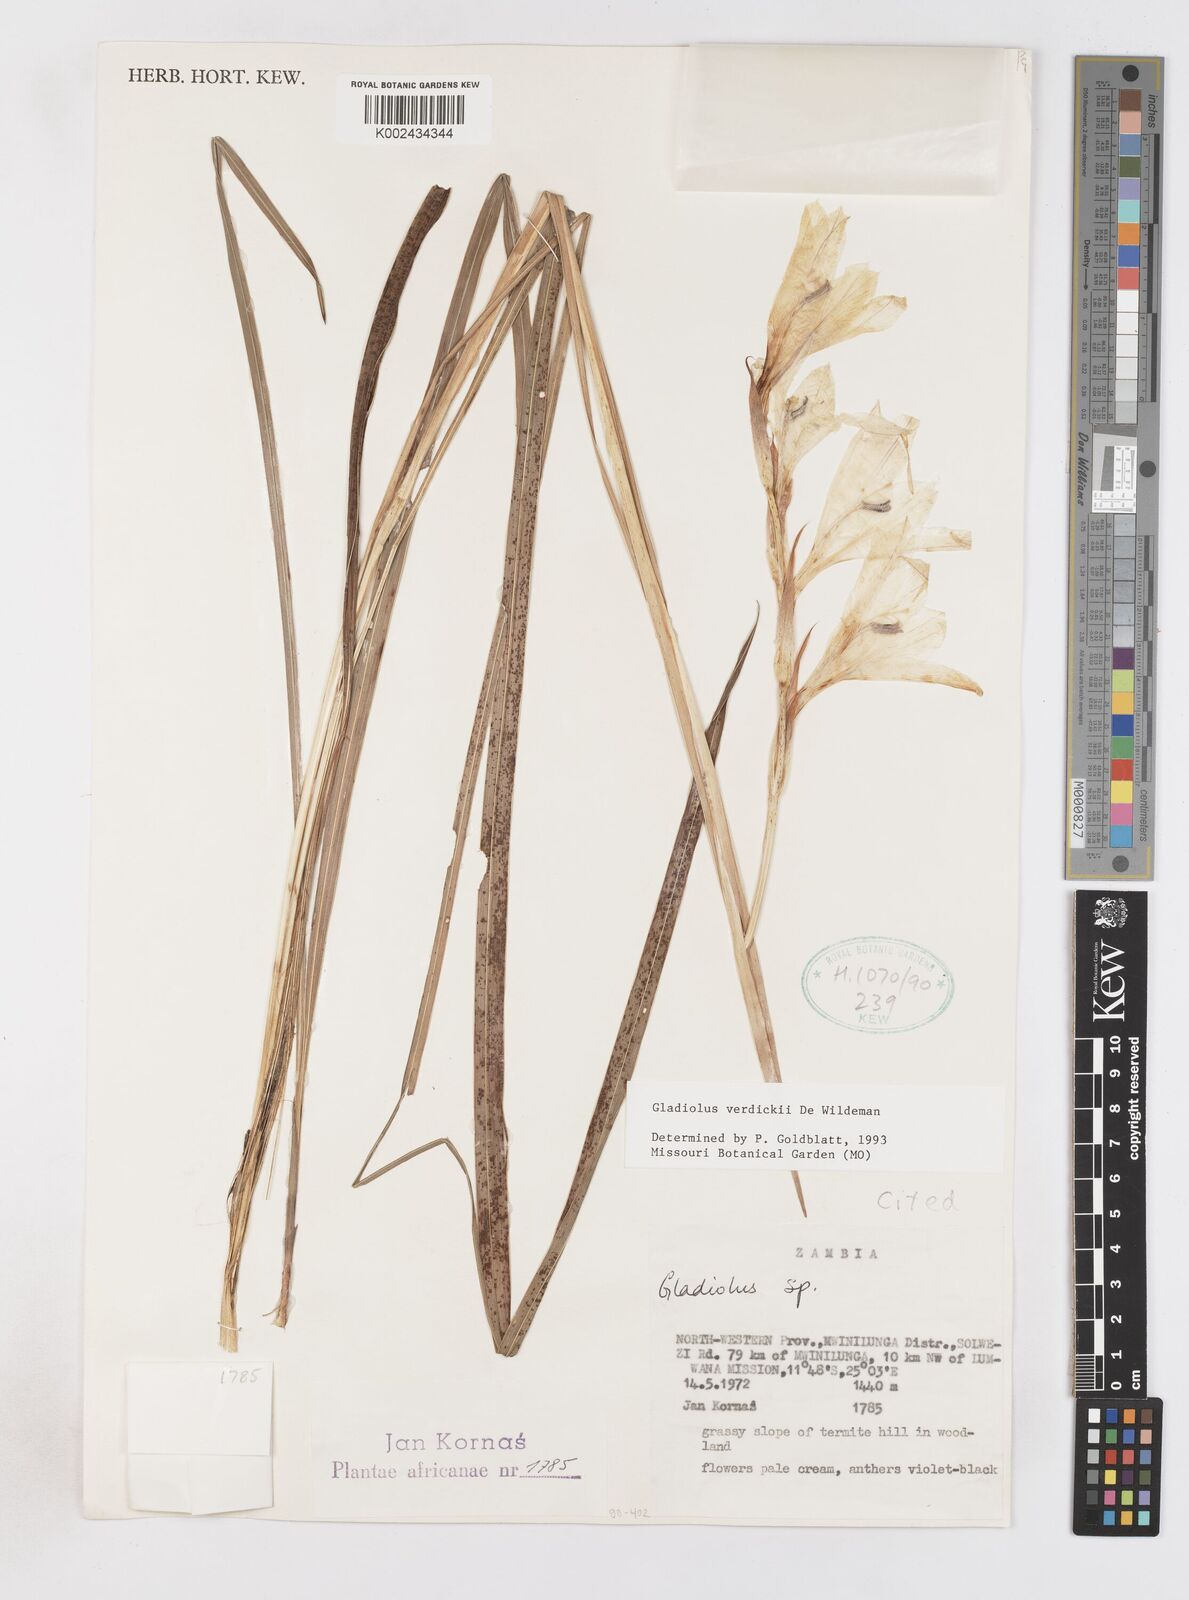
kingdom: Plantae
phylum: Tracheophyta
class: Liliopsida
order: Asparagales
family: Iridaceae
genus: Gladiolus
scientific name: Gladiolus verdickii
